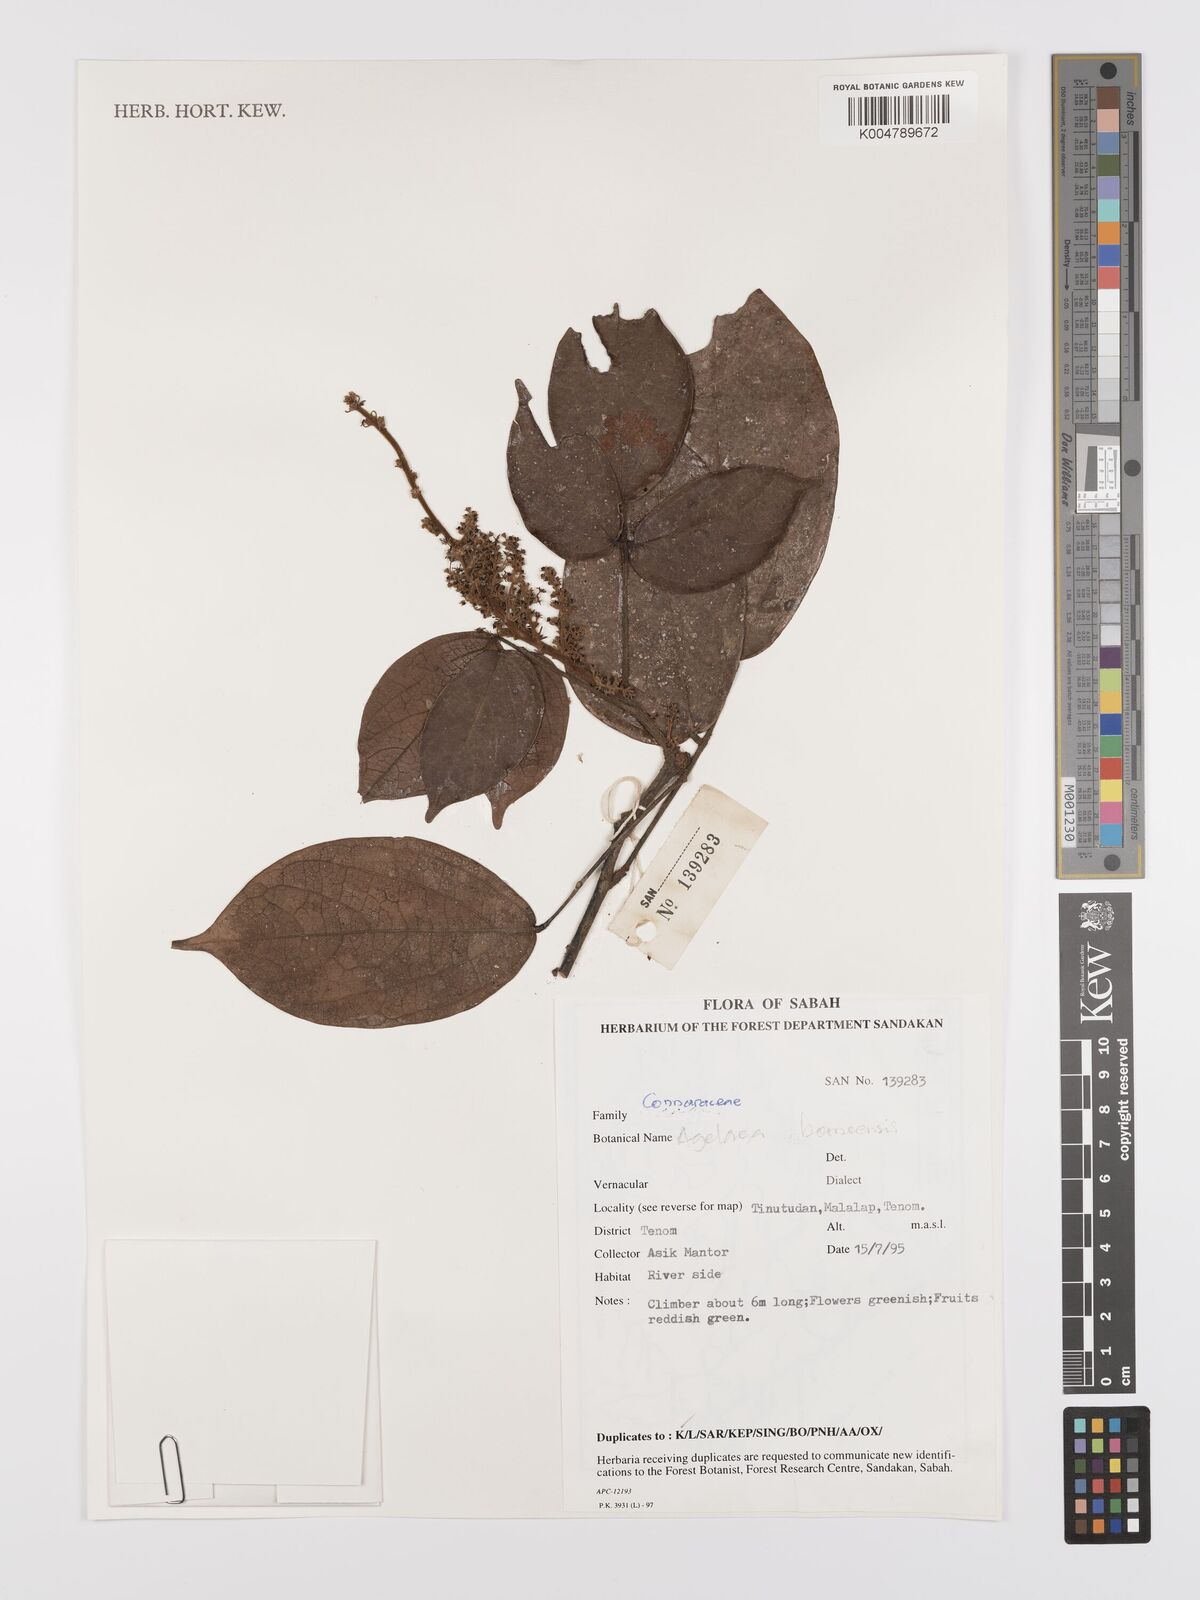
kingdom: Plantae
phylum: Tracheophyta
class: Magnoliopsida
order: Oxalidales
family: Connaraceae
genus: Agelaea
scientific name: Agelaea borneensis
